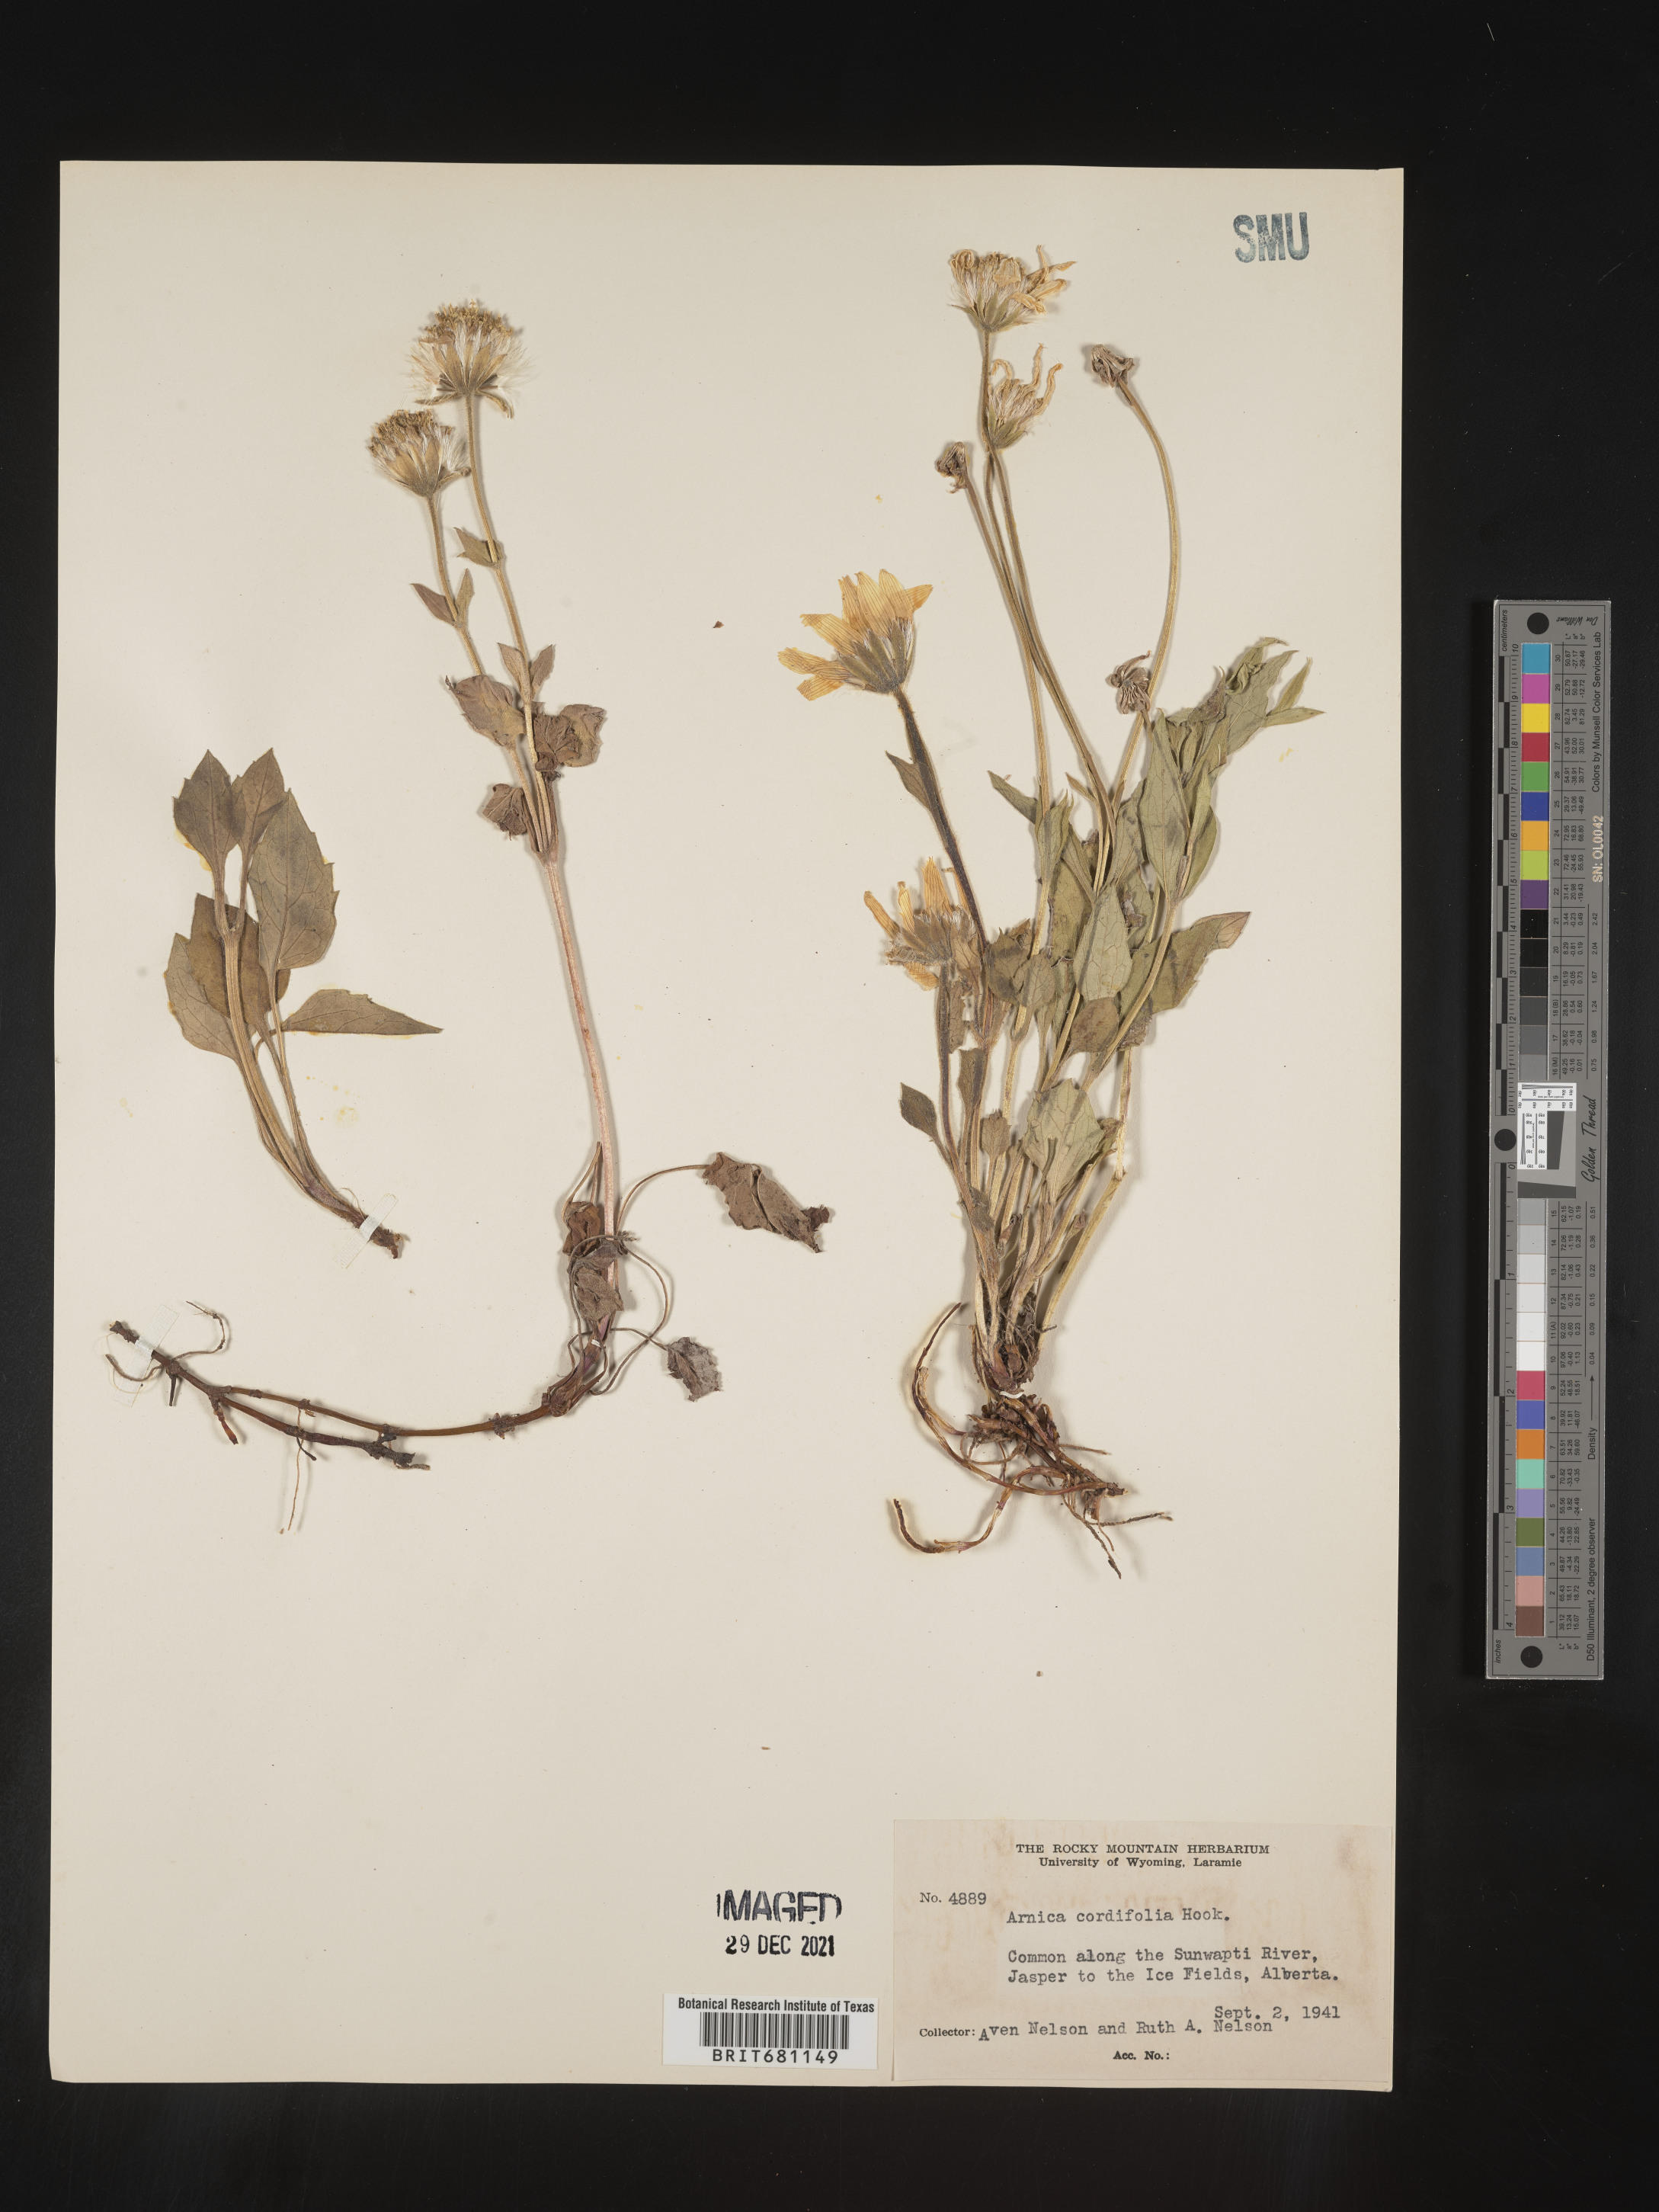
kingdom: Plantae
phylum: Tracheophyta
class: Magnoliopsida
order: Asterales
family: Asteraceae
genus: Arnica
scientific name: Arnica cordifolia
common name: Heart-leaf arnica
